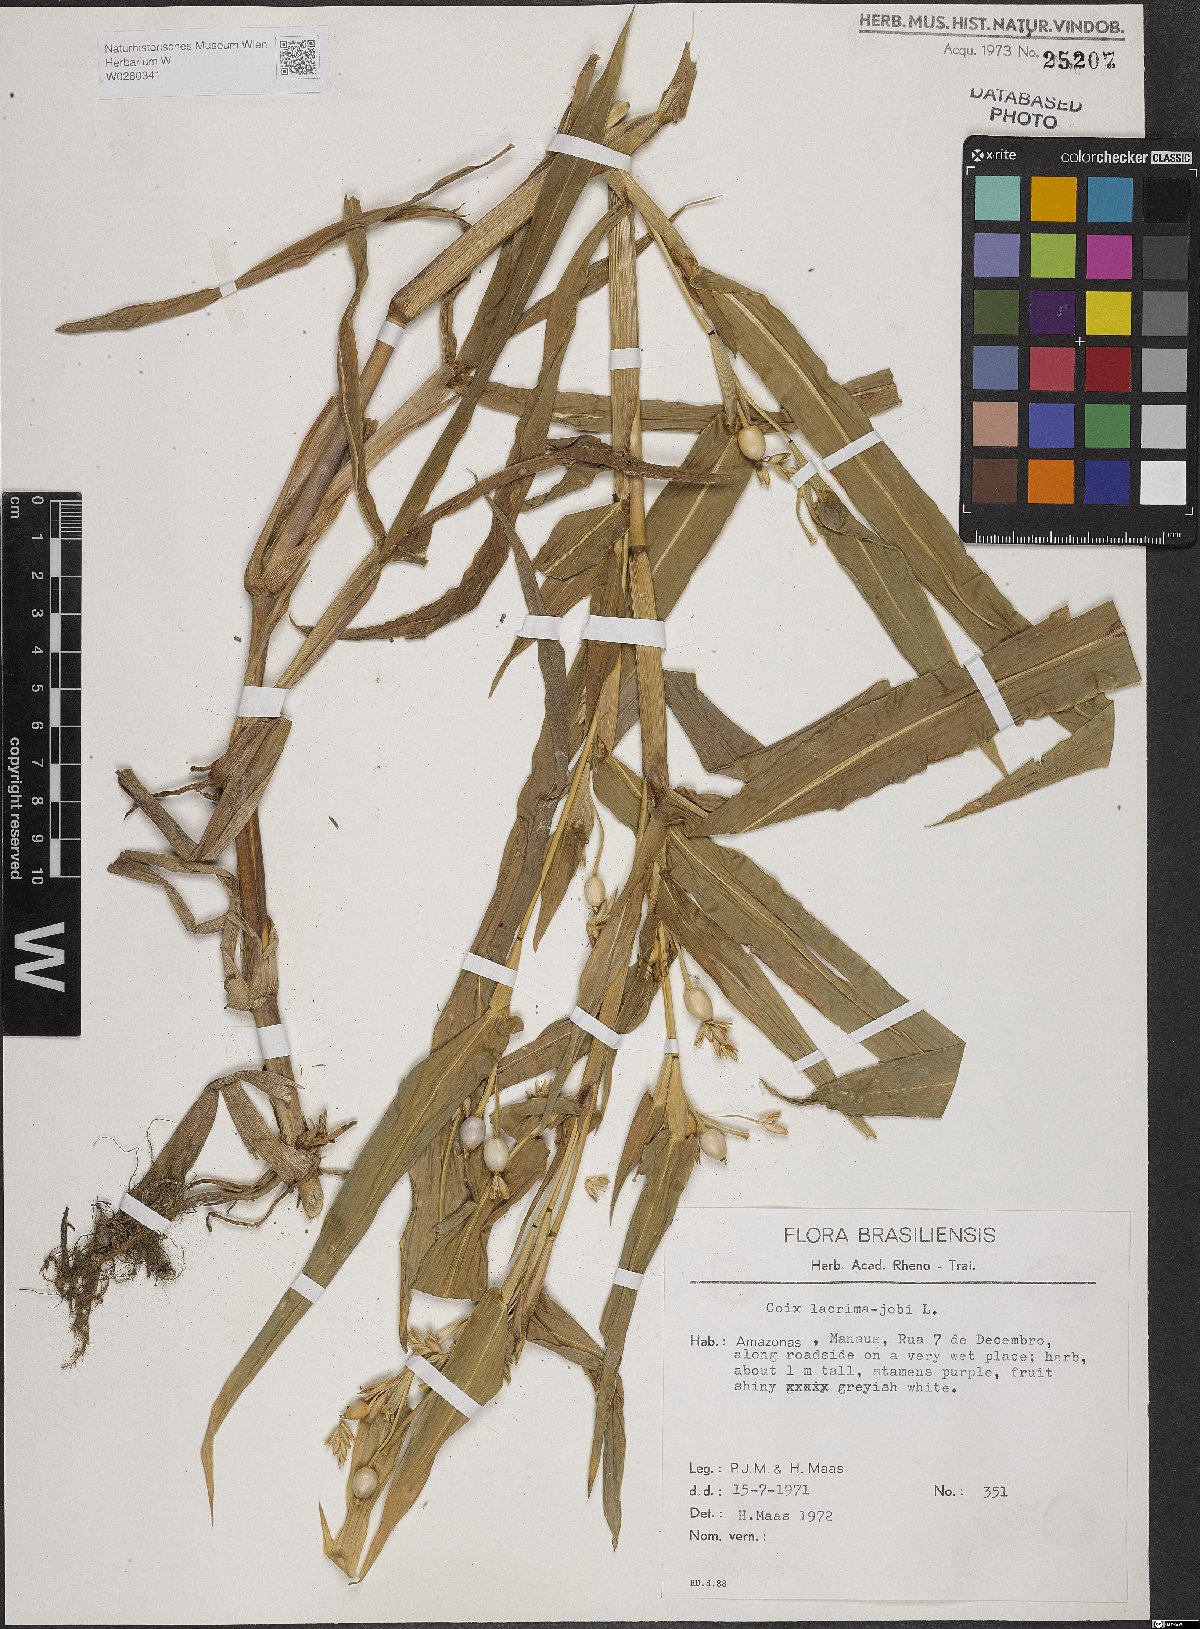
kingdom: Plantae
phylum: Tracheophyta
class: Liliopsida
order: Poales
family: Poaceae
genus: Coix
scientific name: Coix lacryma-jobi
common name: Job's tears
